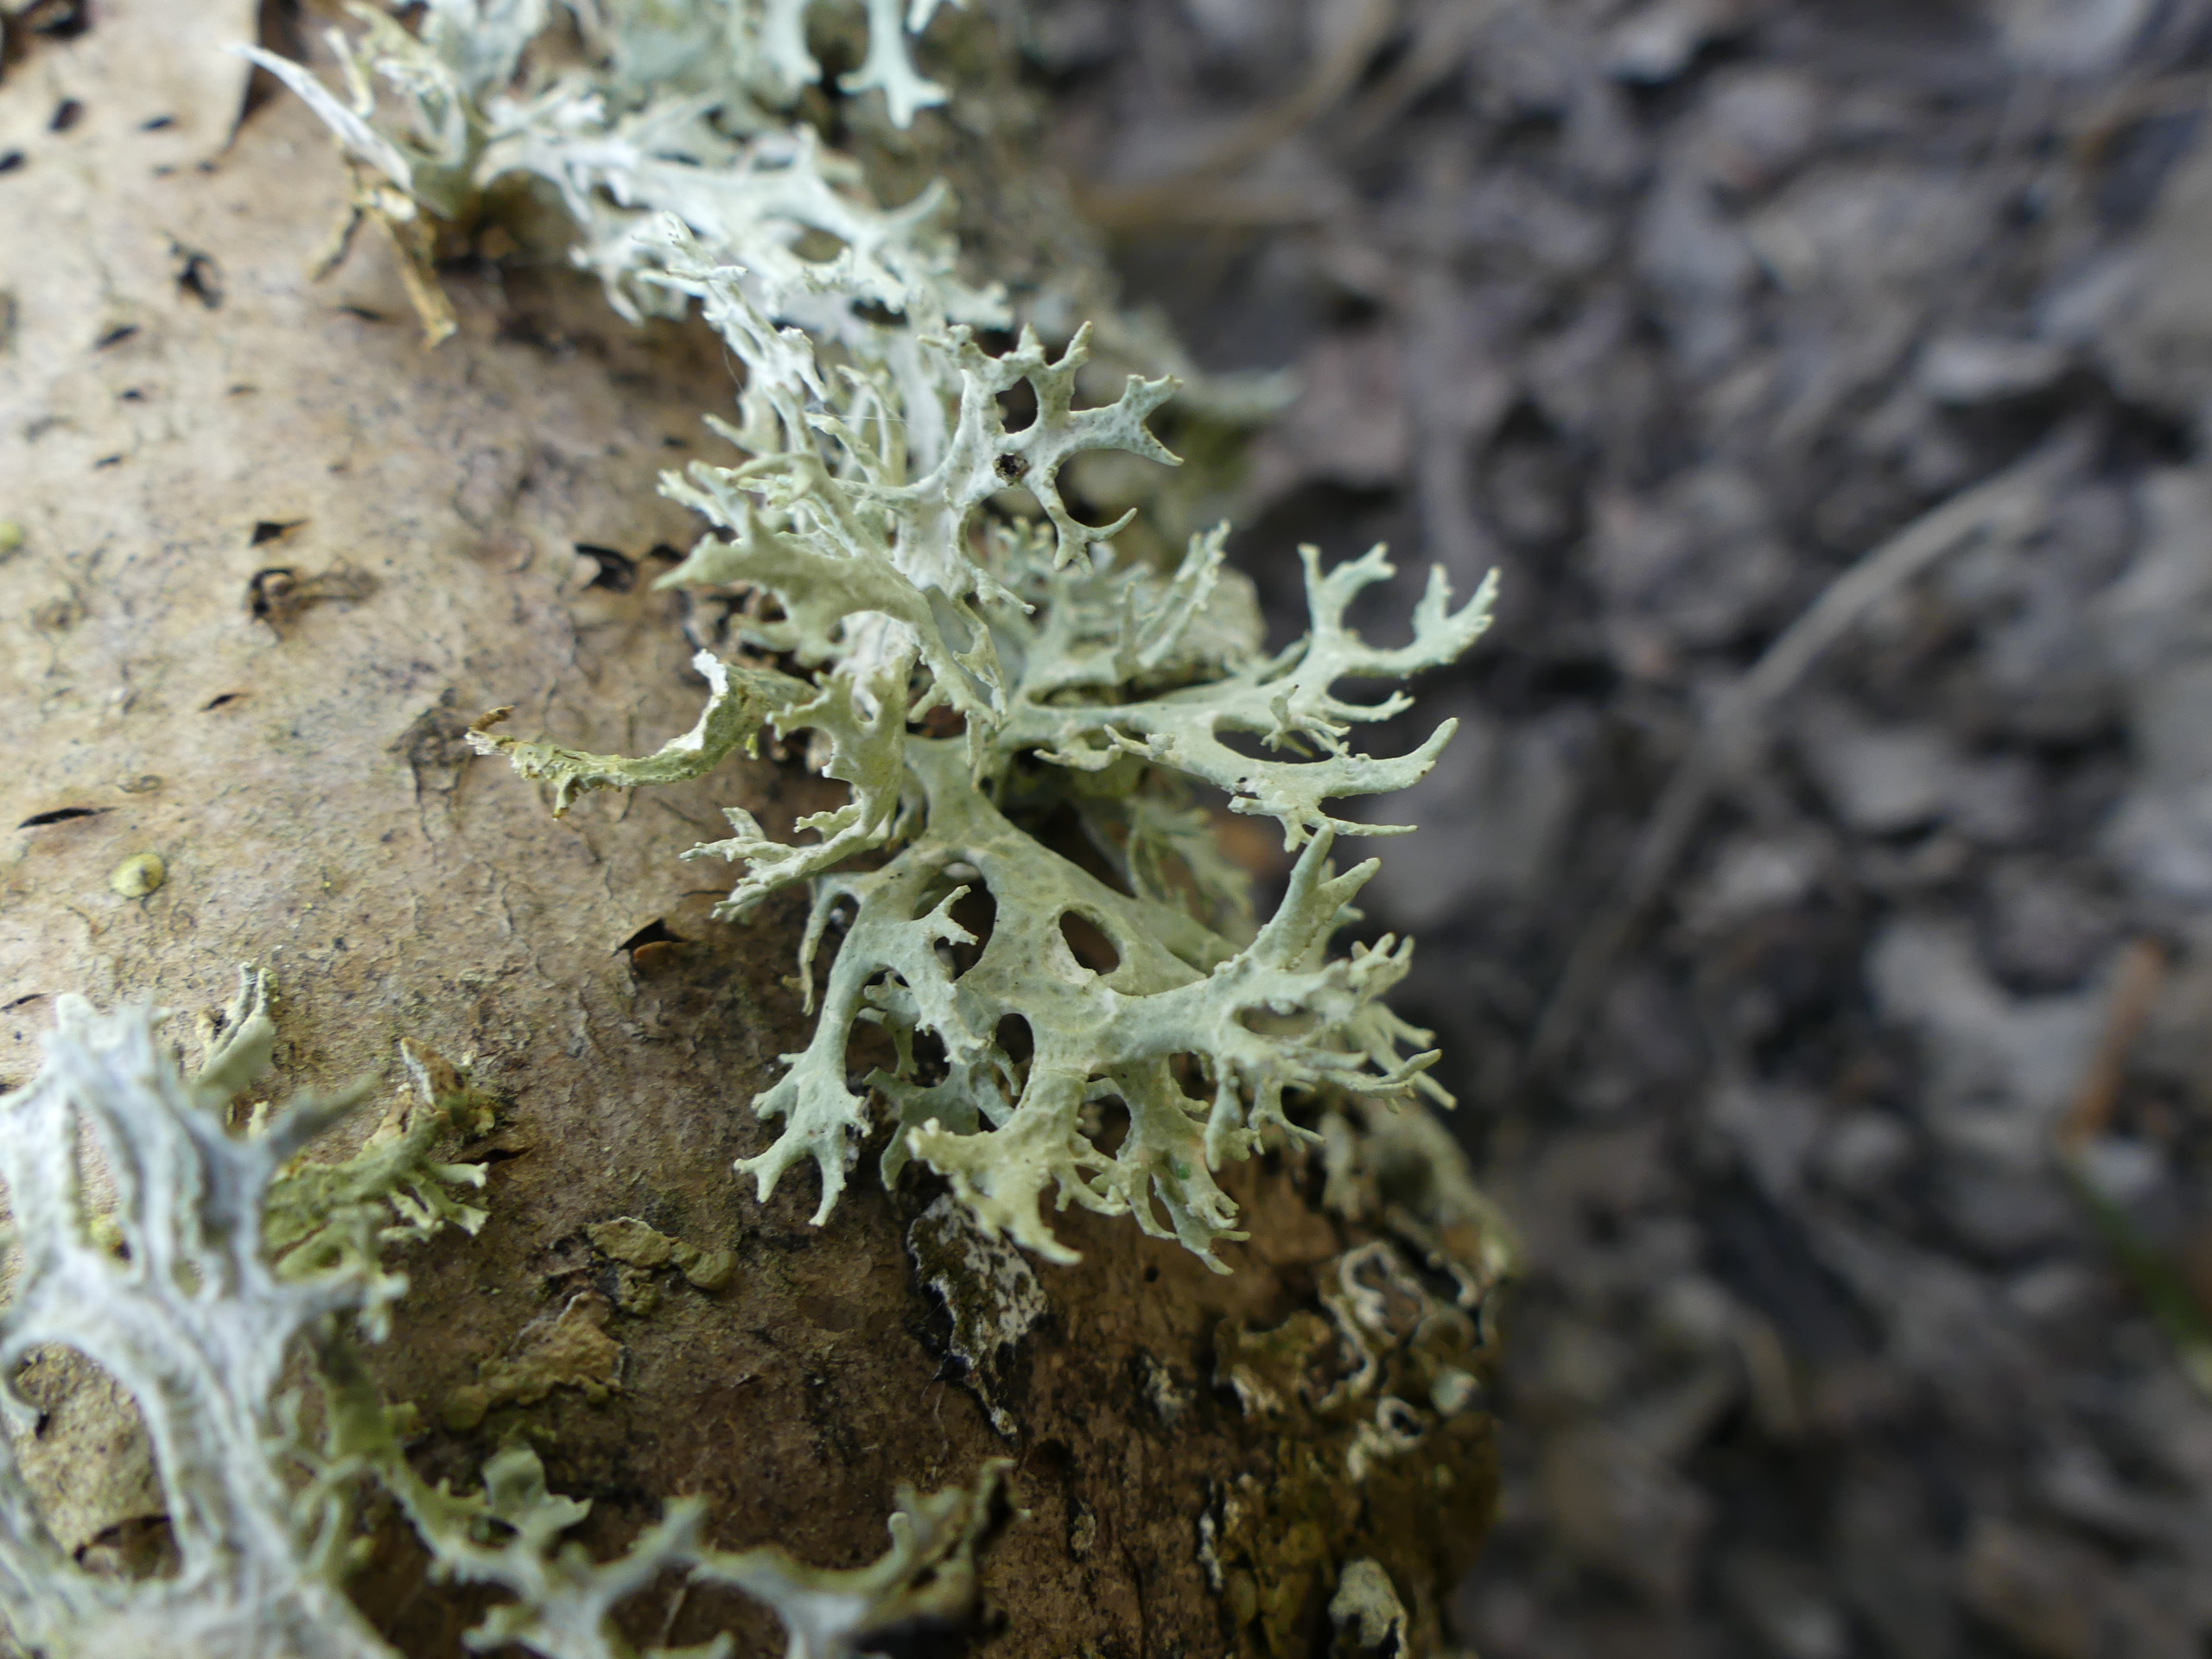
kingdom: Fungi
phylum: Ascomycota
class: Lecanoromycetes
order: Lecanorales
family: Parmeliaceae
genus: Evernia
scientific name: Evernia prunastri
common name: Almindelig slåenlav
